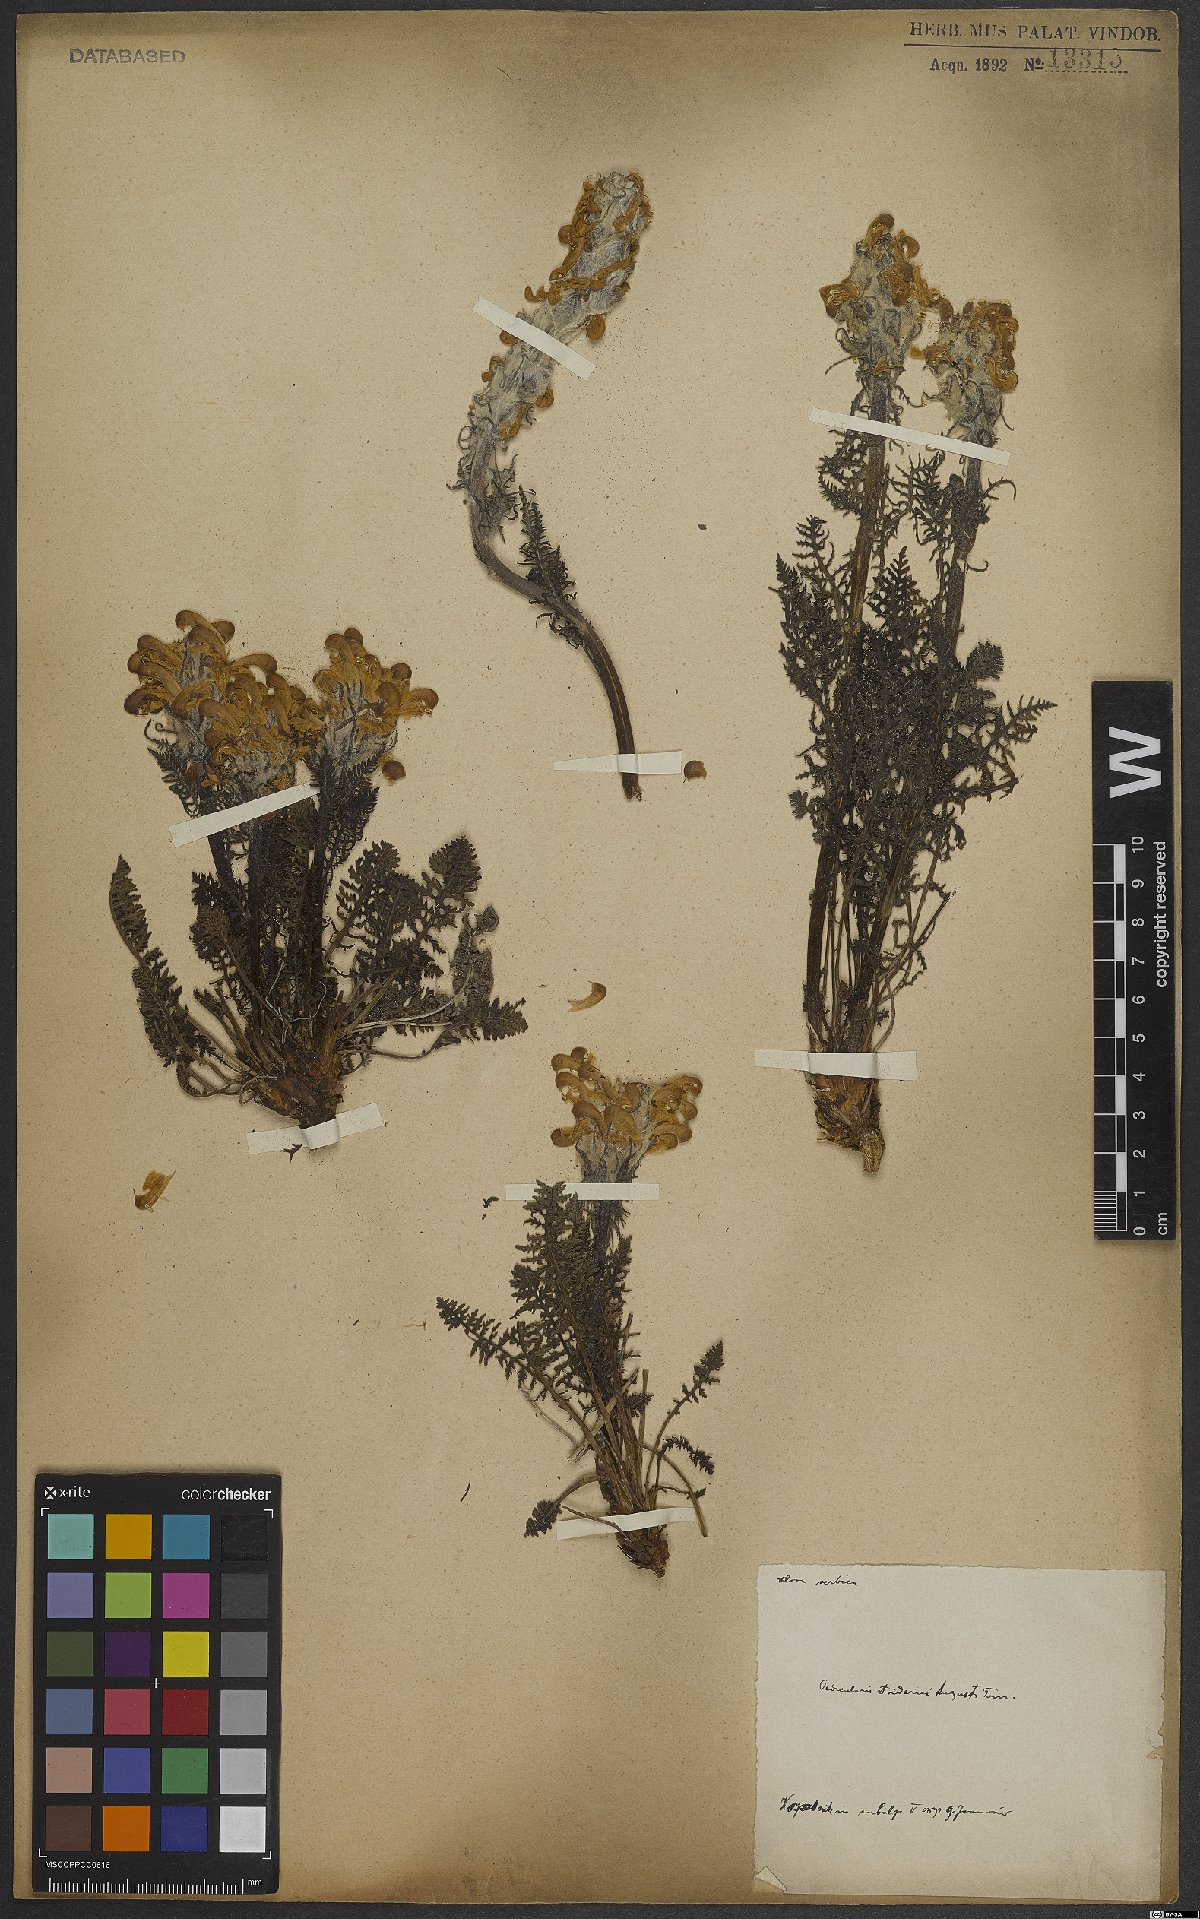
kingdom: Plantae
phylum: Tracheophyta
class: Magnoliopsida
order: Lamiales
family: Orobanchaceae
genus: Pedicularis
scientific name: Pedicularis friderici-augusti
